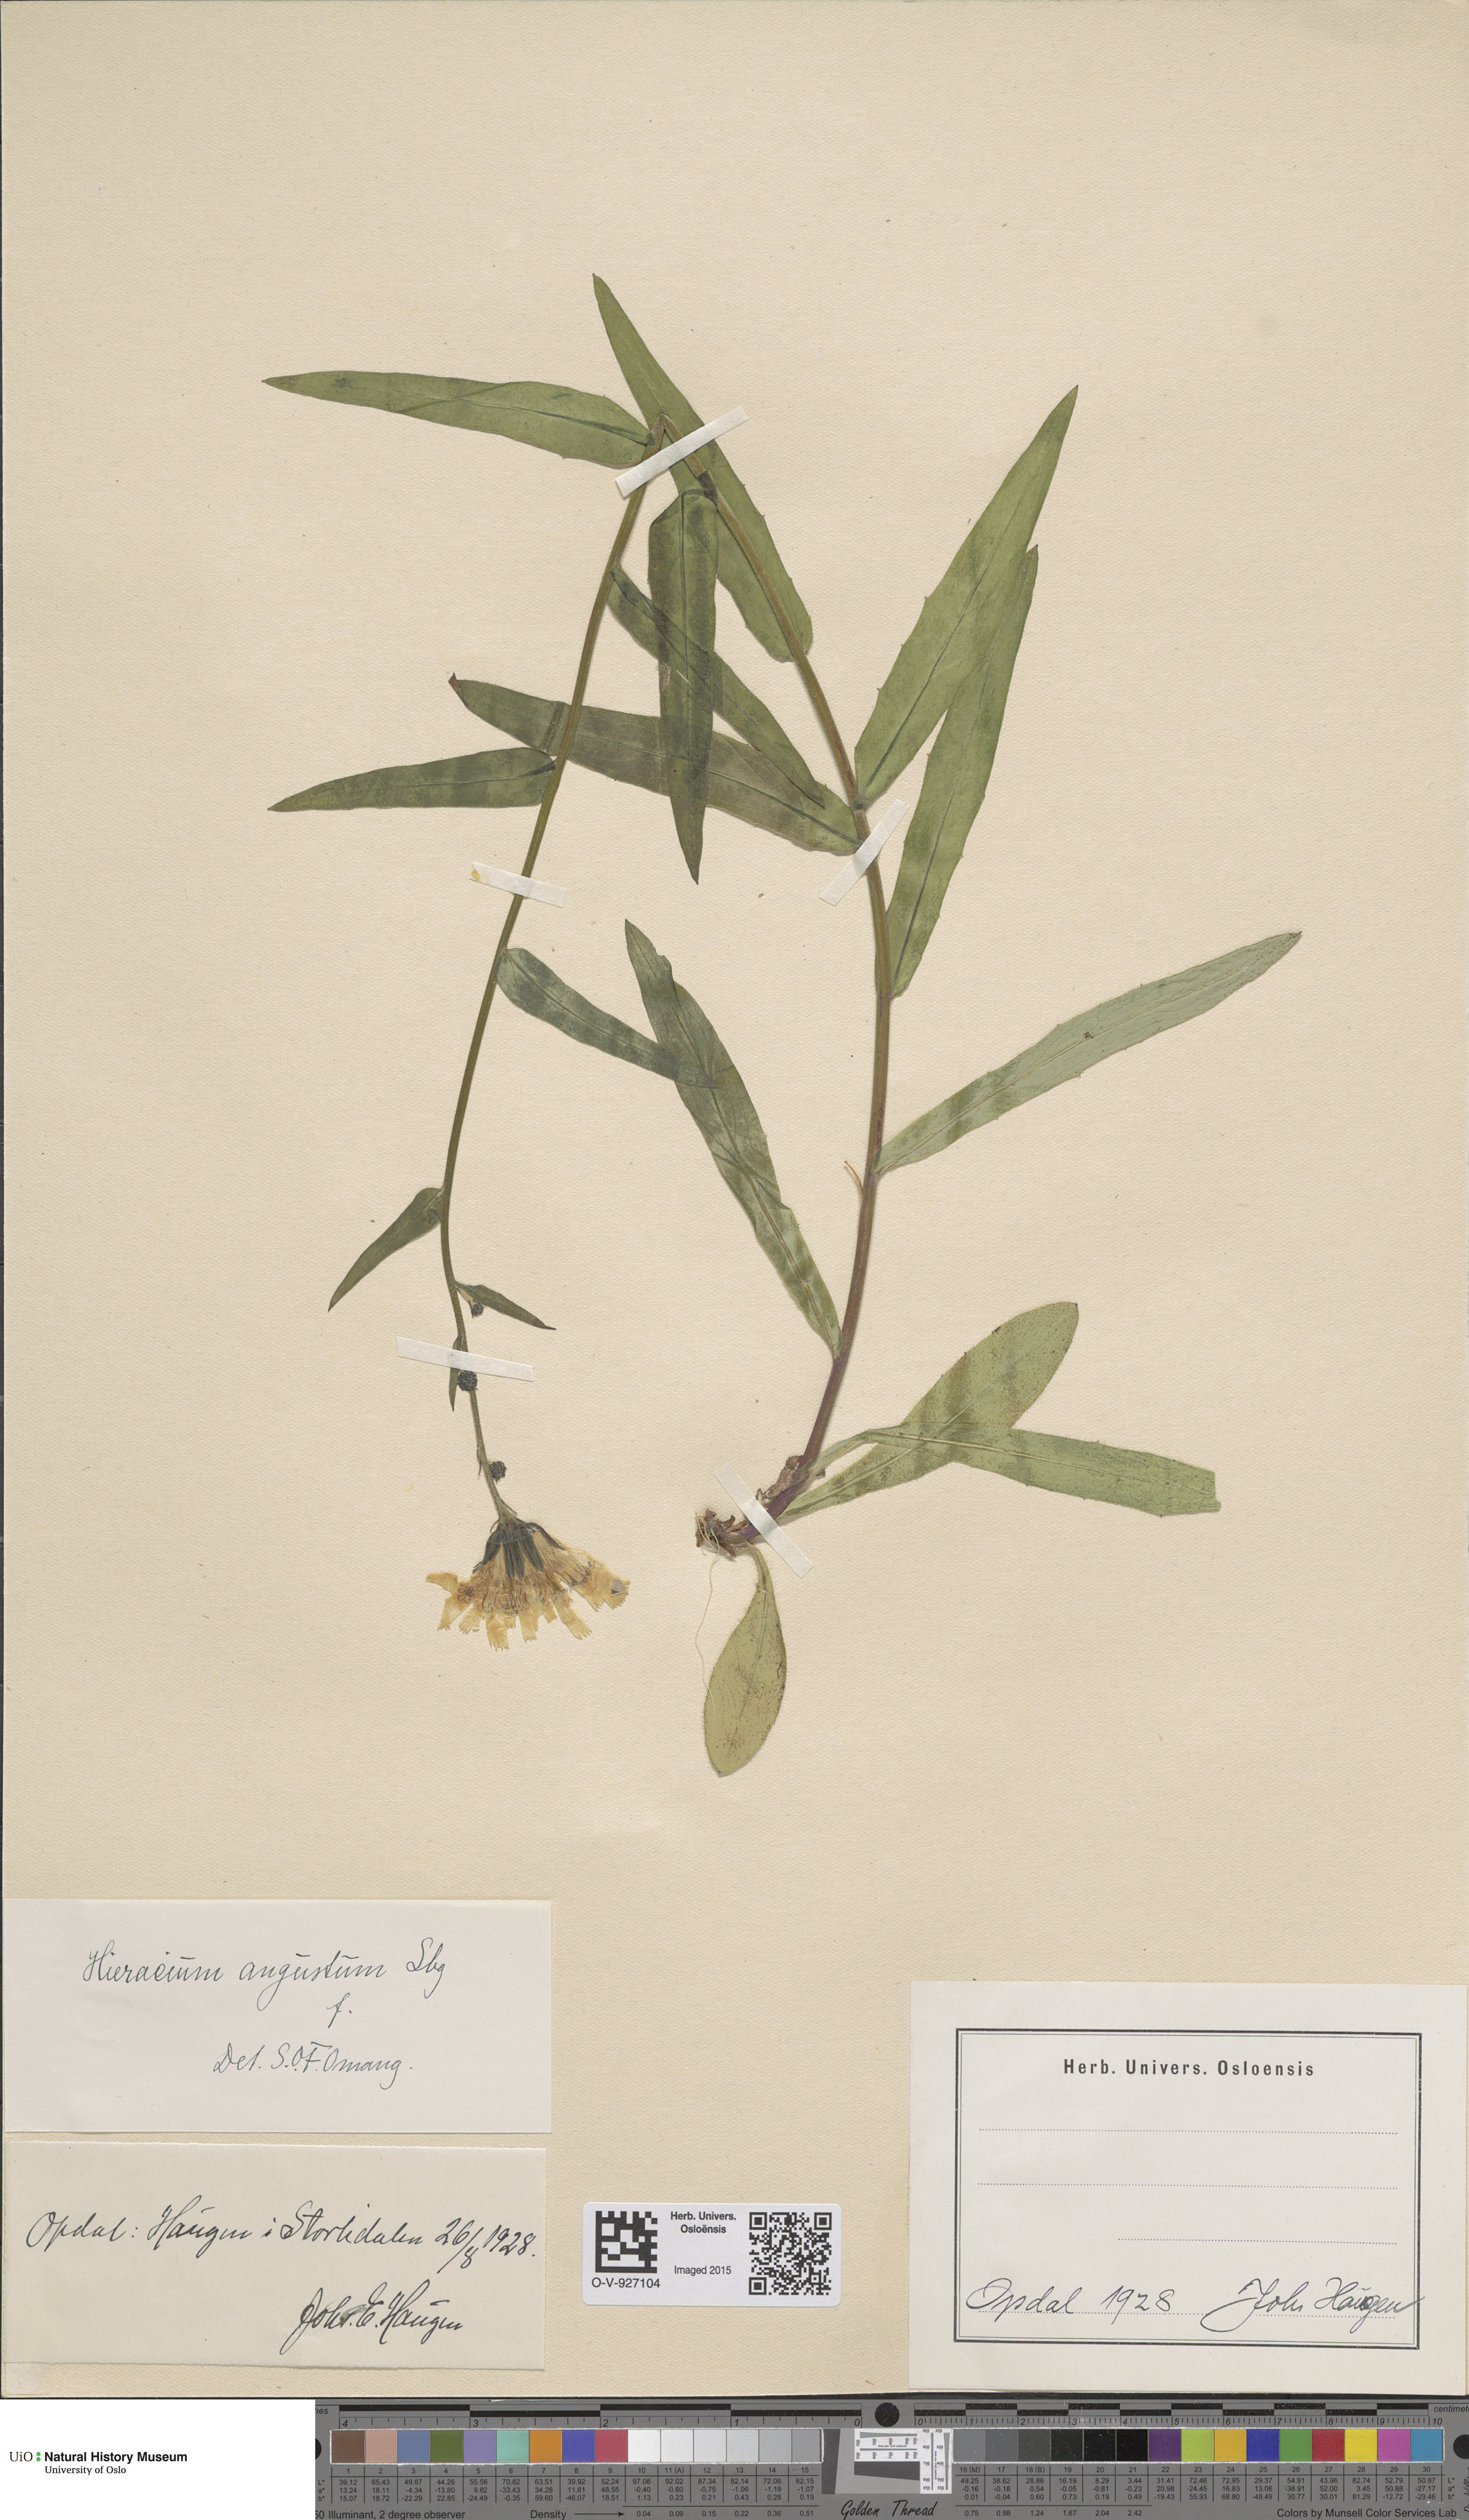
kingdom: Plantae
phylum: Tracheophyta
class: Magnoliopsida
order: Asterales
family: Asteraceae
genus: Hieracium
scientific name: Hieracium angustum
